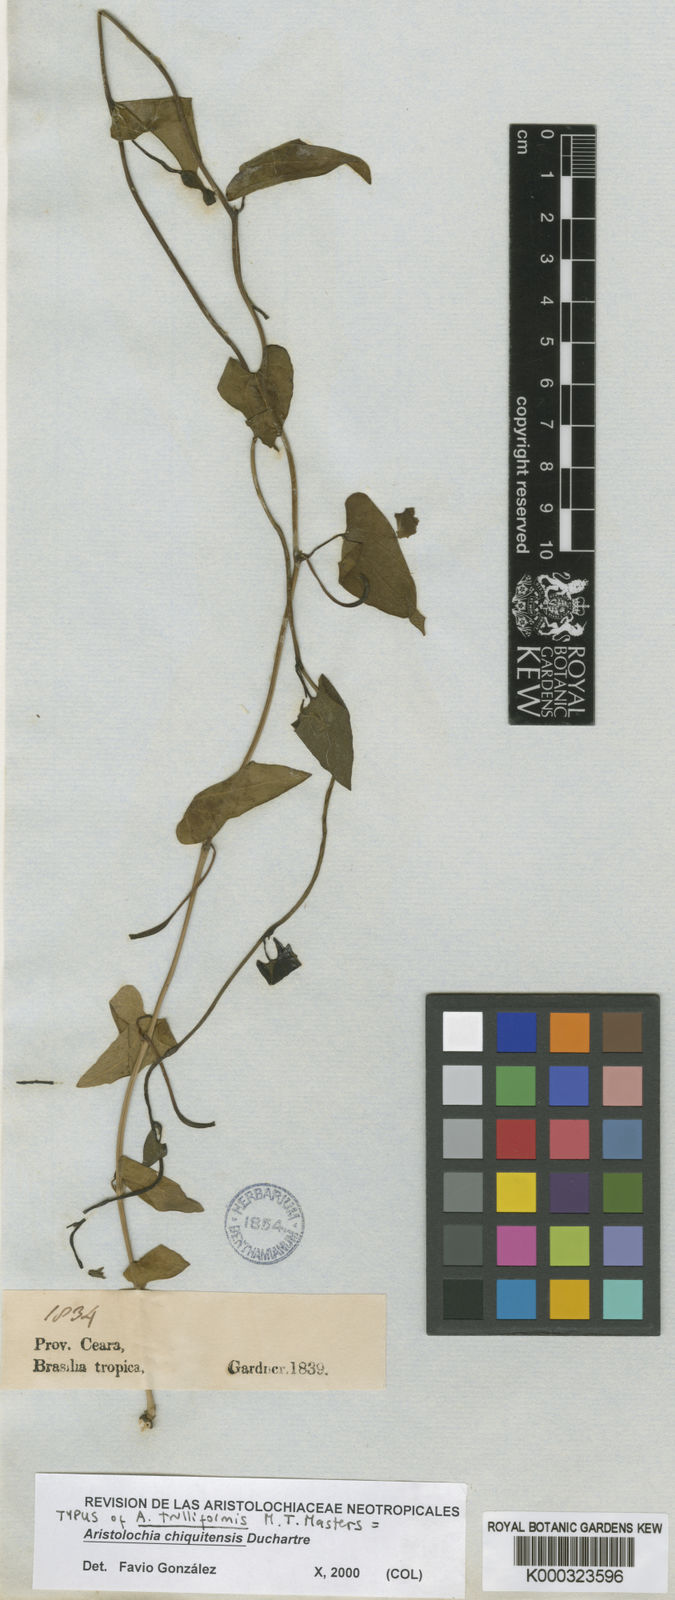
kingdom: Plantae
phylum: Tracheophyta
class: Magnoliopsida
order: Piperales
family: Aristolochiaceae
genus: Aristolochia
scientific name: Aristolochia chiquitensis
